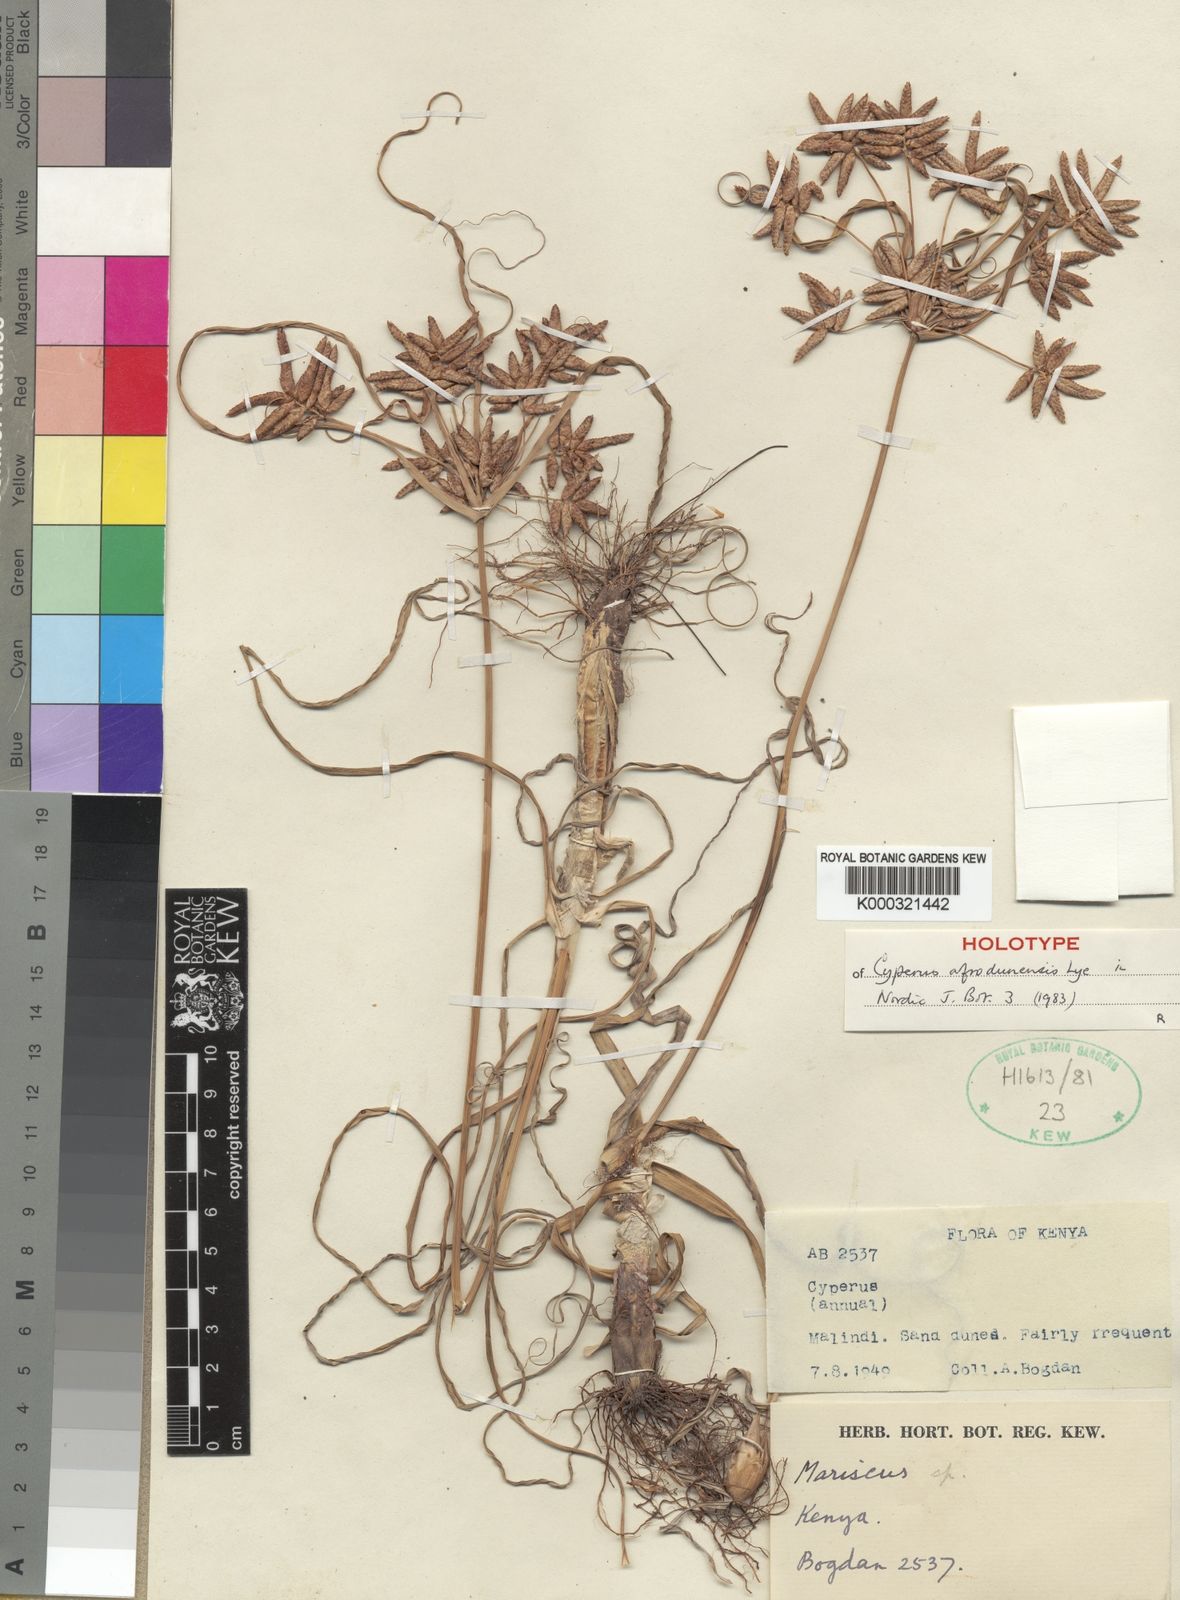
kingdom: Plantae
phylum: Tracheophyta
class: Liliopsida
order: Poales
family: Cyperaceae
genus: Cyperus
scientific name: Cyperus afrodunensis
